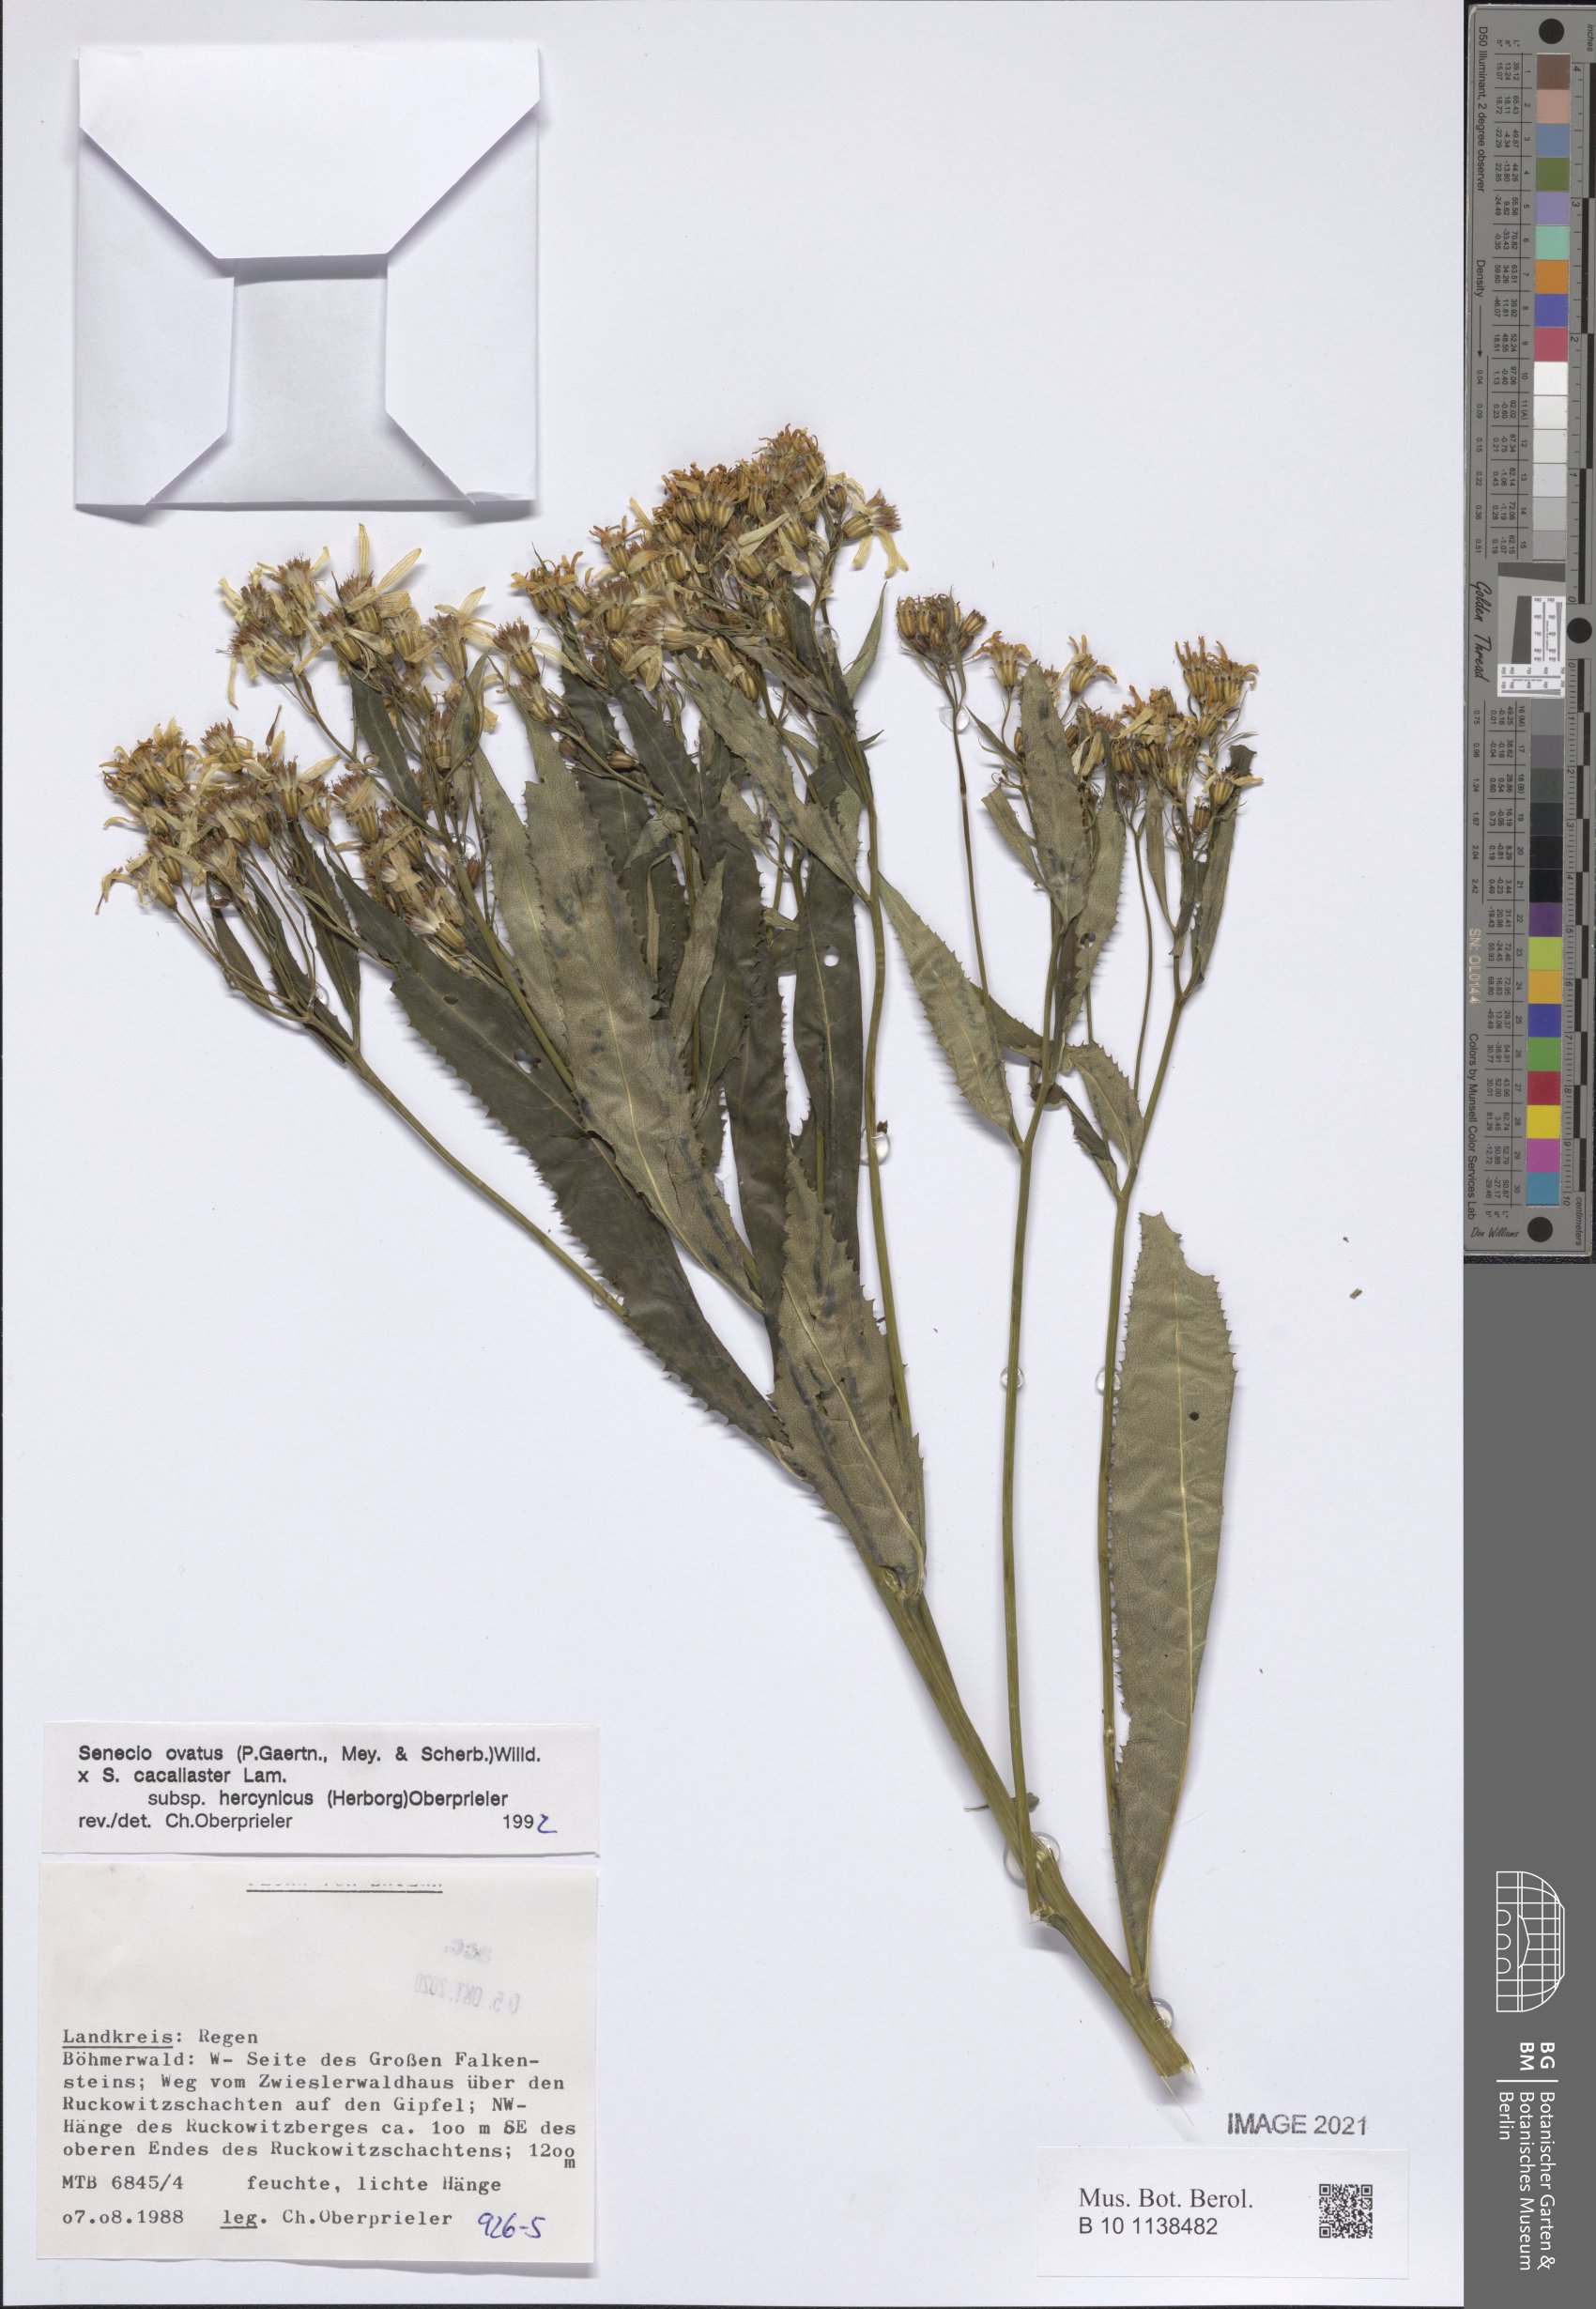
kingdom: Plantae
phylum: Tracheophyta
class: Magnoliopsida
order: Asterales
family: Asteraceae
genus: Senecio
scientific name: Senecio ovatus
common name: Wood ragwort
